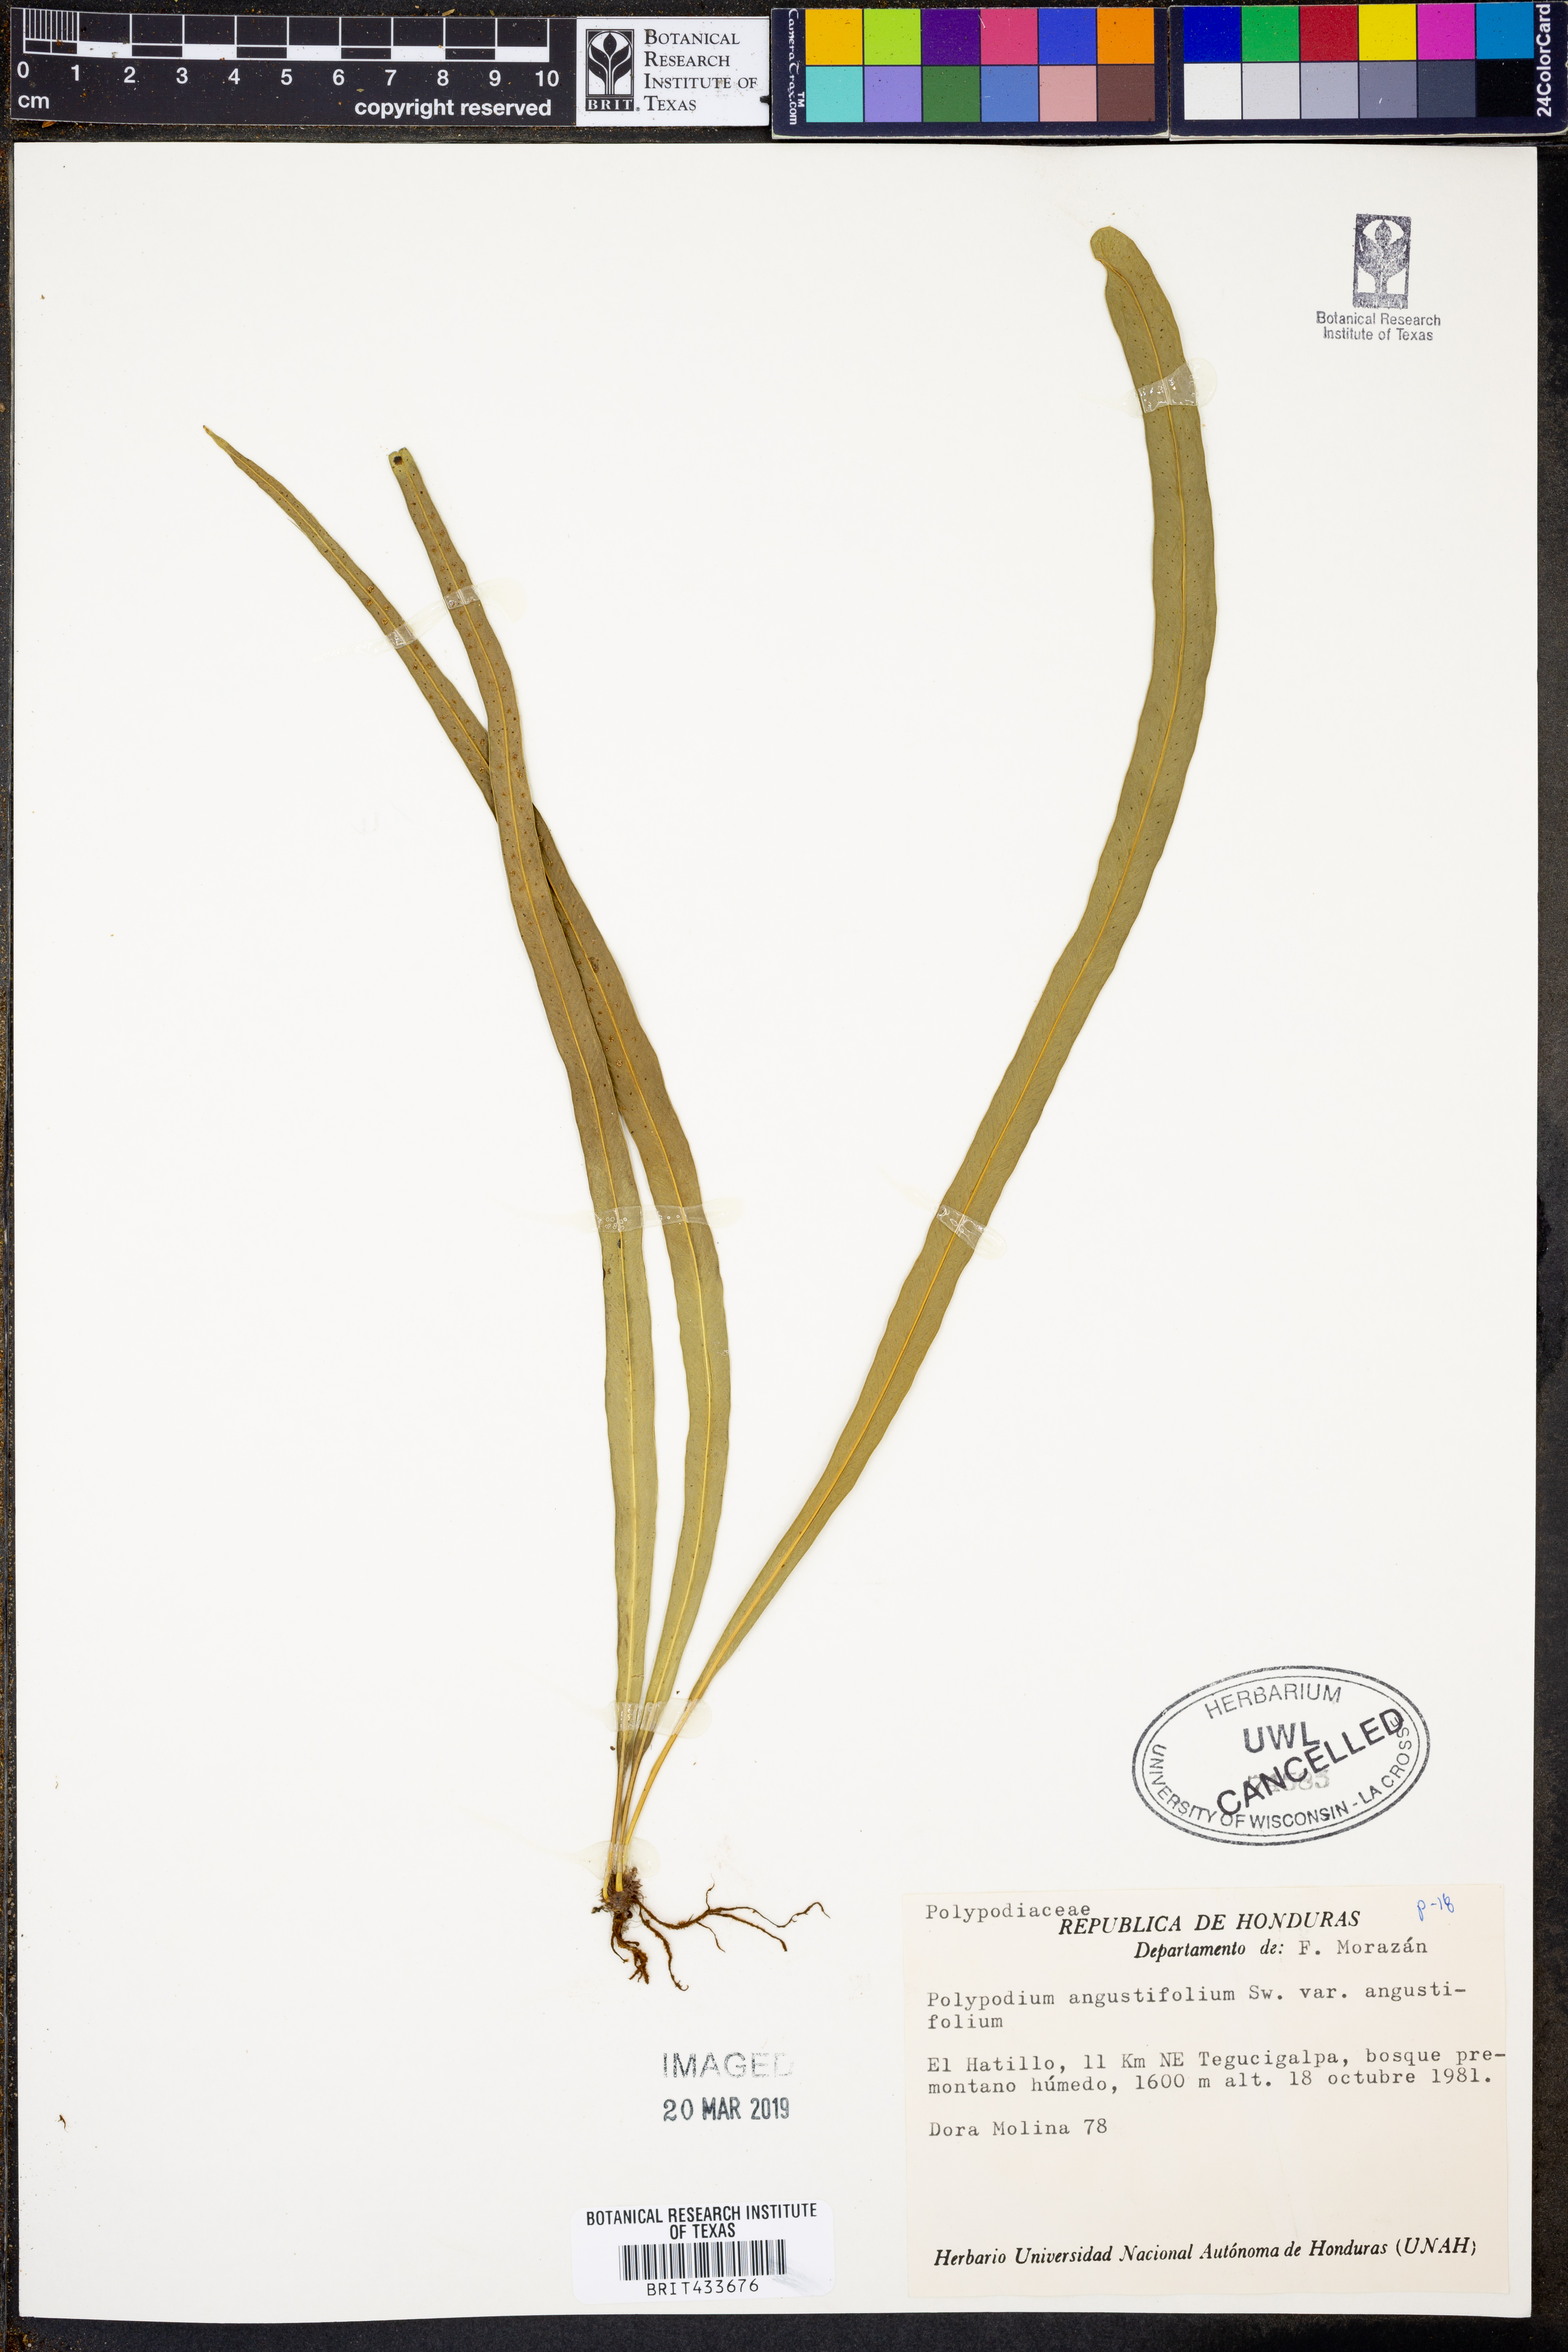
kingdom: Plantae
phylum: Tracheophyta
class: Polypodiopsida
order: Polypodiales
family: Polypodiaceae
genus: Campyloneurum
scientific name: Campyloneurum angustifolium
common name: Narrow-leaf strap fern
